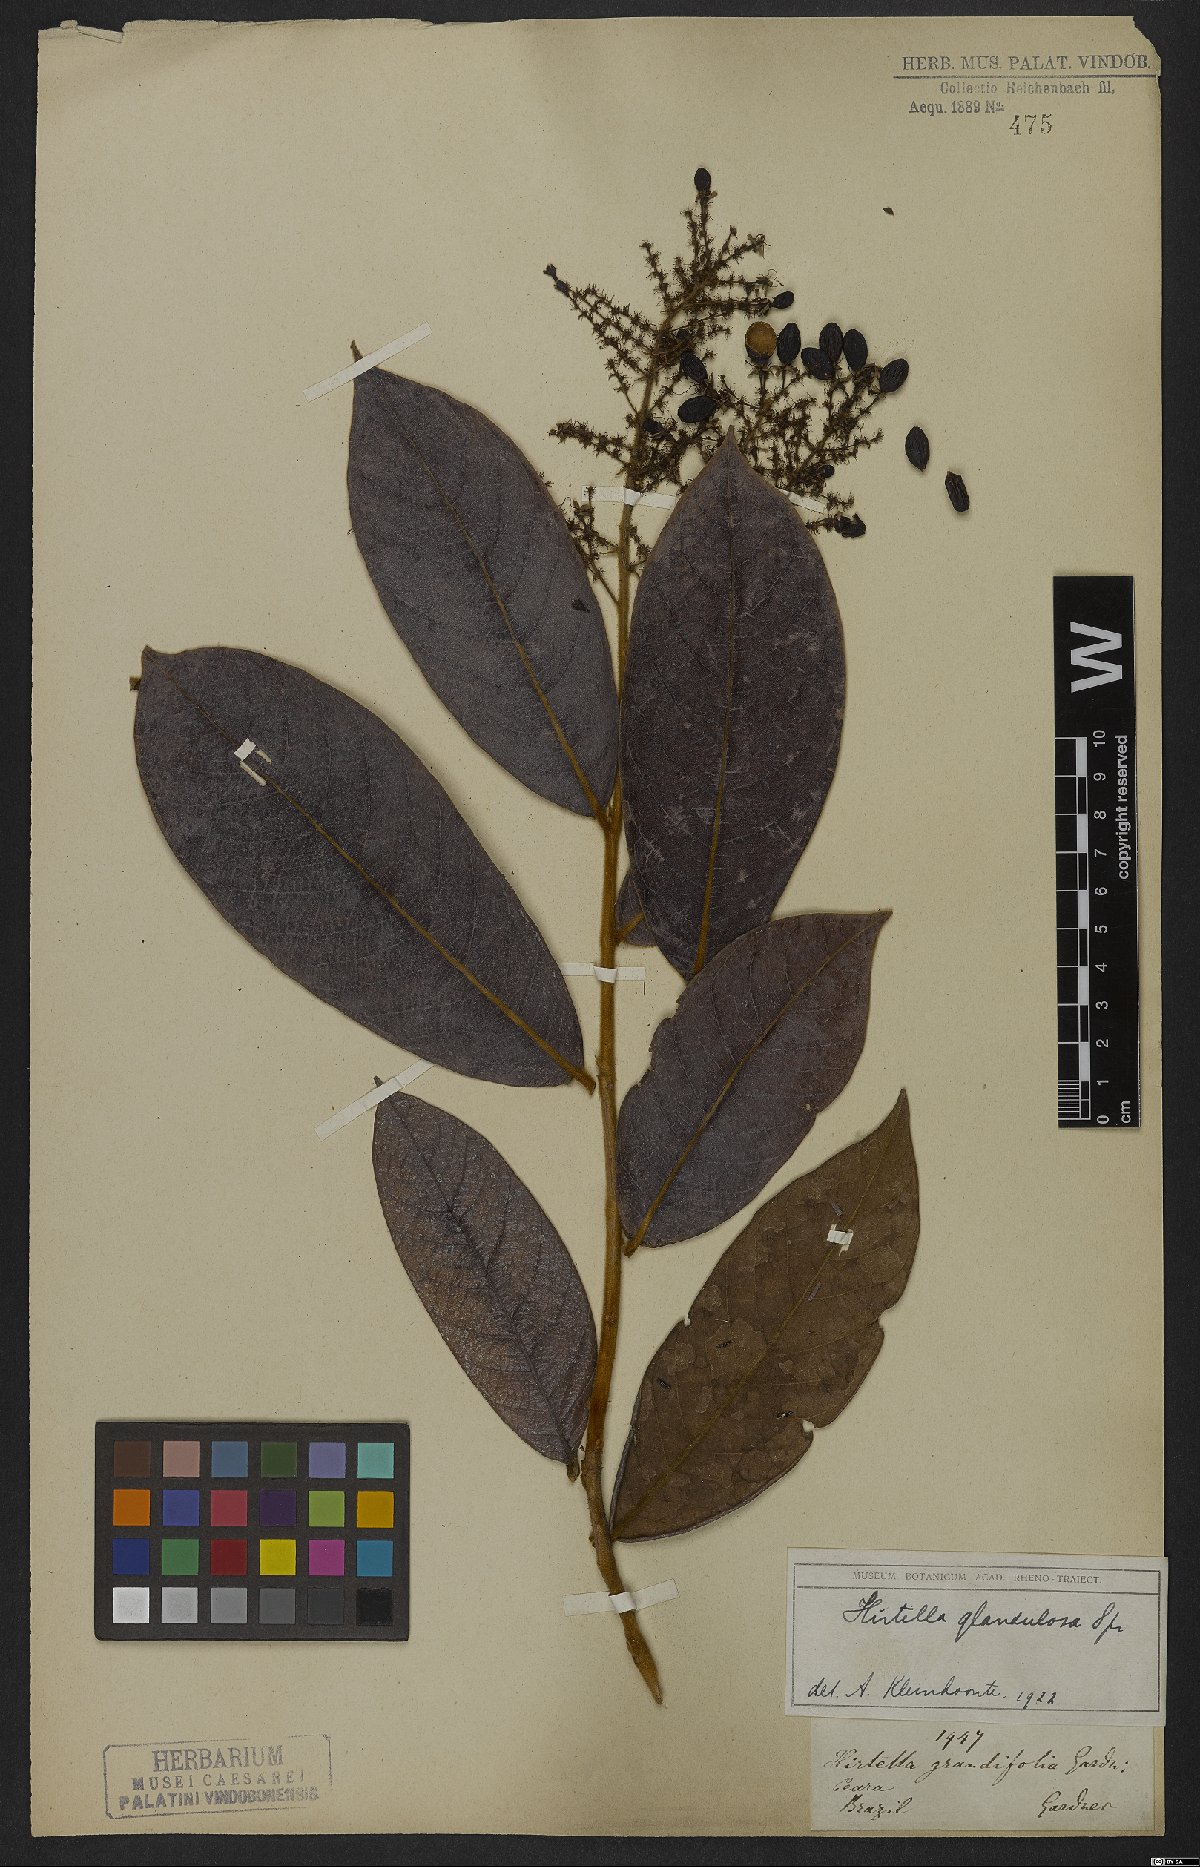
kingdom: Plantae
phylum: Tracheophyta
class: Magnoliopsida
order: Malpighiales
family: Chrysobalanaceae
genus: Hirtella
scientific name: Hirtella glandulosa
